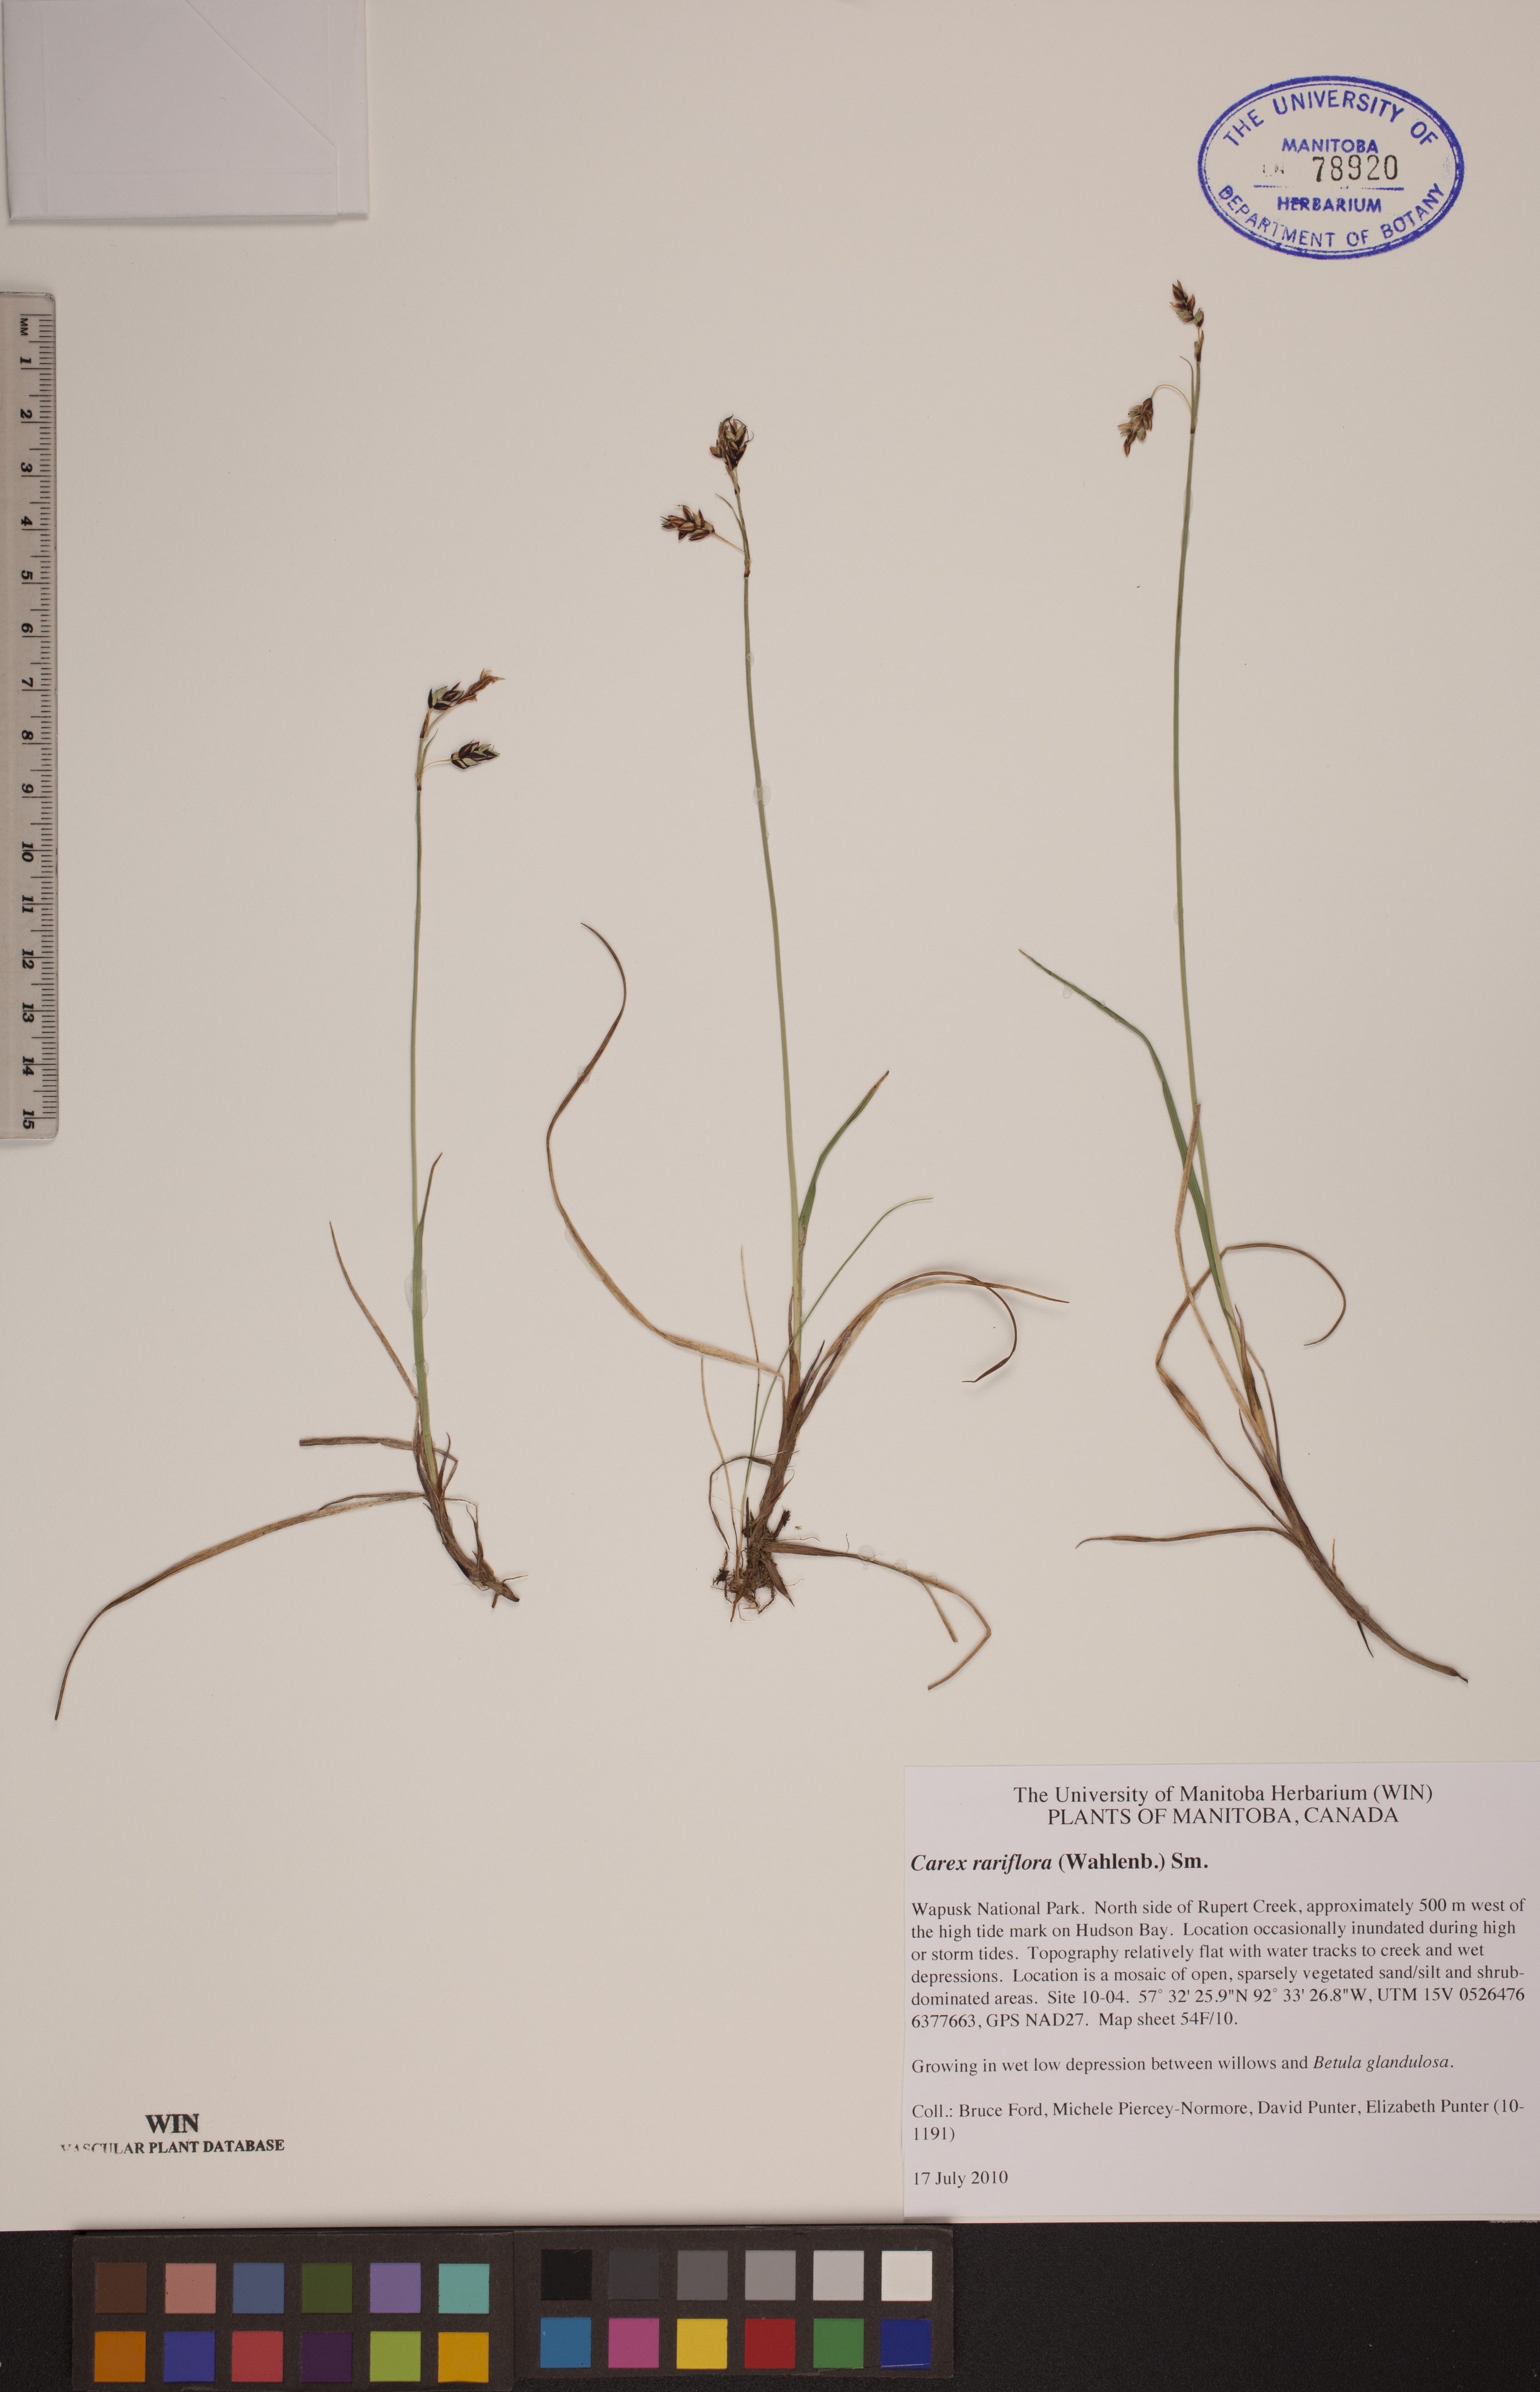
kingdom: Plantae
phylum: Tracheophyta
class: Liliopsida
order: Poales
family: Cyperaceae
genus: Carex
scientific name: Carex rariflora
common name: Loose-flowered alpine sedge
